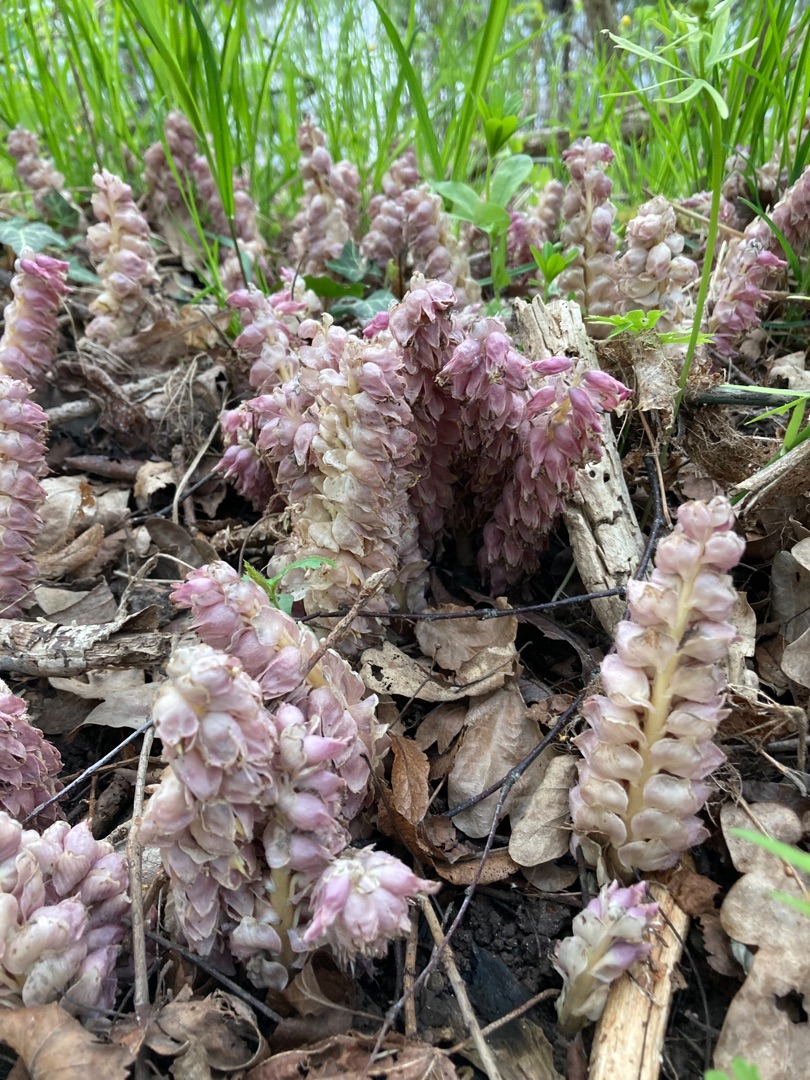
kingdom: Plantae
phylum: Tracheophyta
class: Magnoliopsida
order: Lamiales
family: Orobanchaceae
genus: Lathraea
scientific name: Lathraea squamaria
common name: Skælrod
